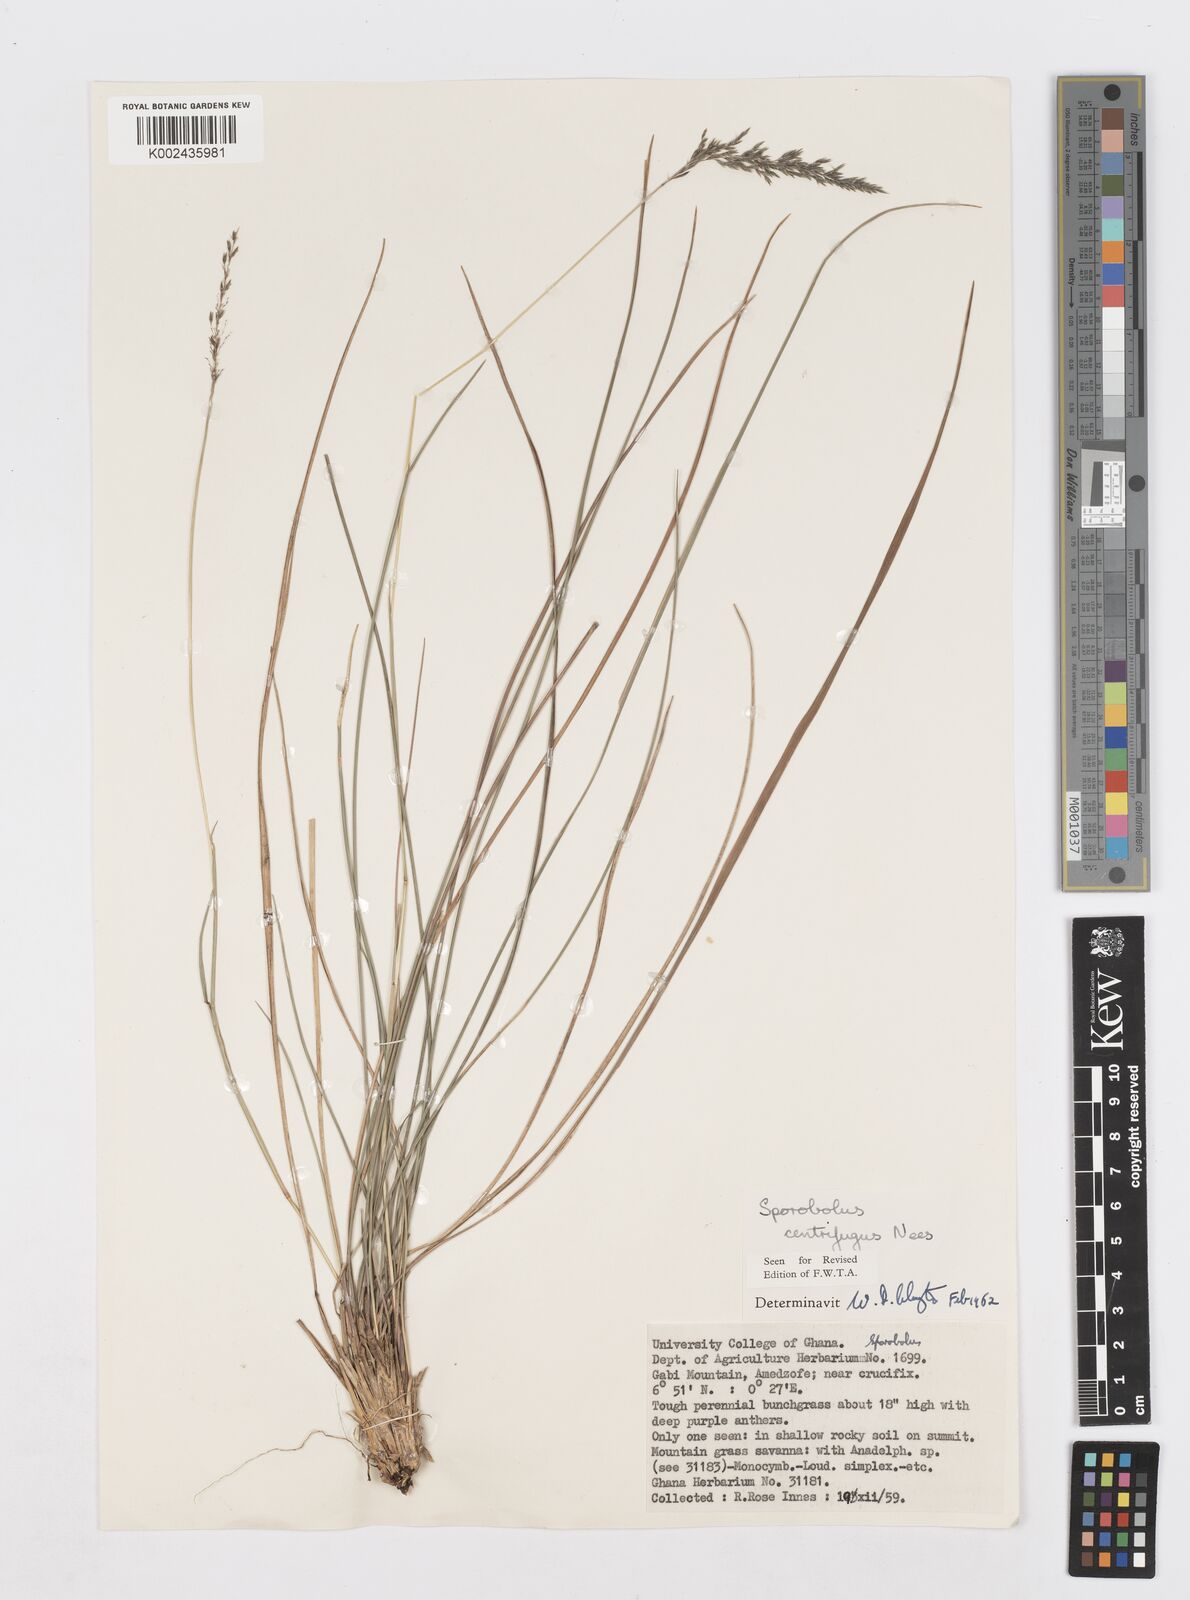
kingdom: Plantae
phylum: Tracheophyta
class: Liliopsida
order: Poales
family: Poaceae
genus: Sporobolus
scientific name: Sporobolus subulatus
